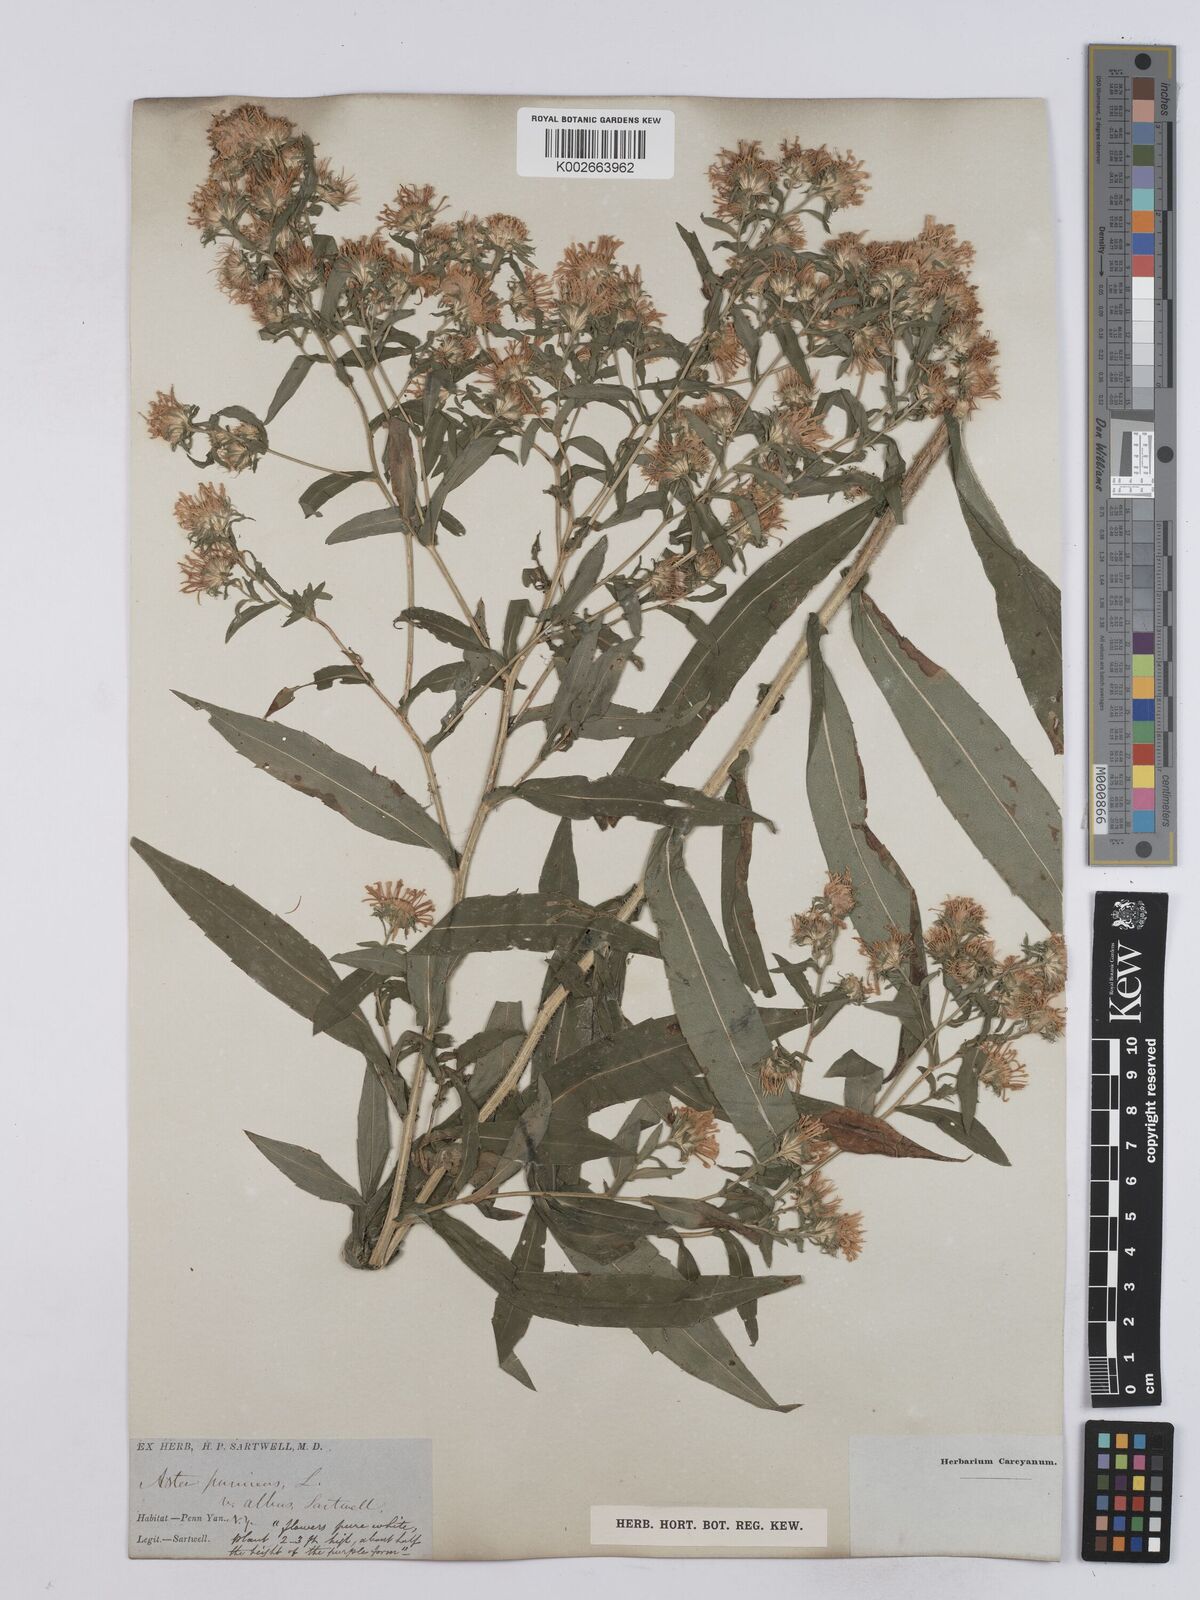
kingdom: Plantae
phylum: Tracheophyta
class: Magnoliopsida
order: Asterales
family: Asteraceae
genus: Symphyotrichum
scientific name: Symphyotrichum puniceum
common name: Bog aster
